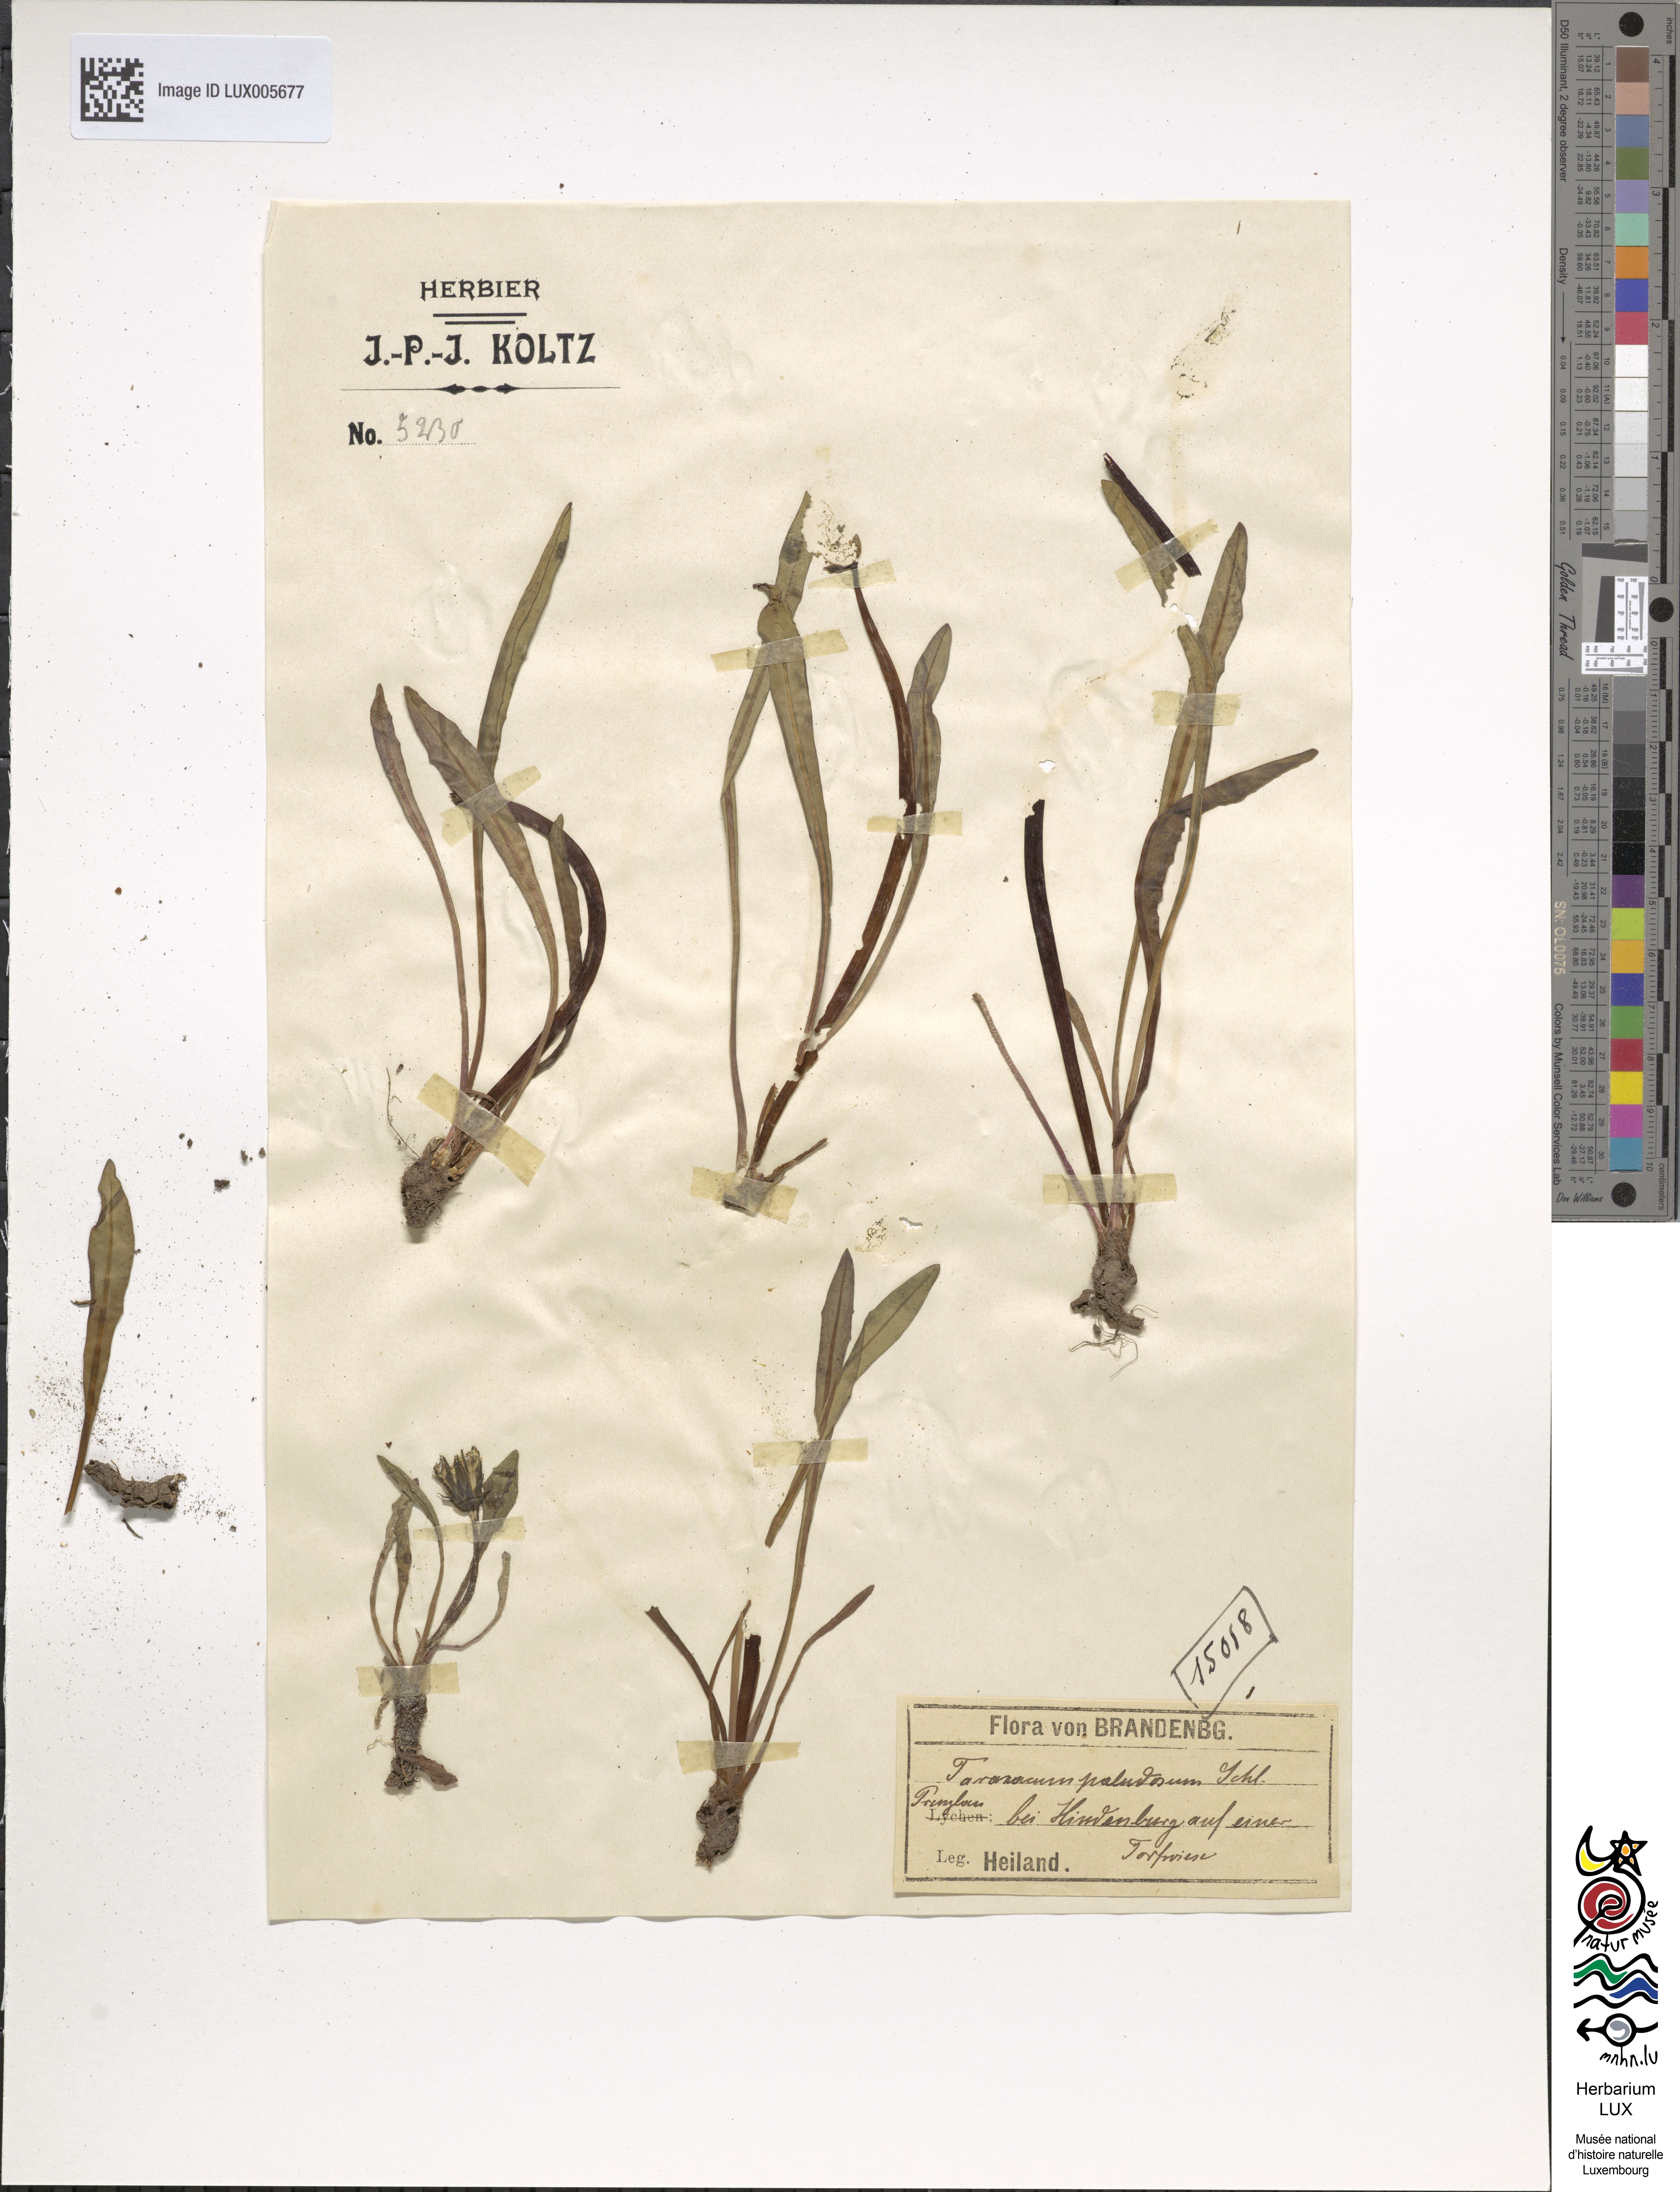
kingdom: Plantae
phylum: Tracheophyta
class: Magnoliopsida
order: Asterales
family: Asteraceae
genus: Taraxacum
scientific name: Taraxacum palustre
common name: Marsh dandelion
